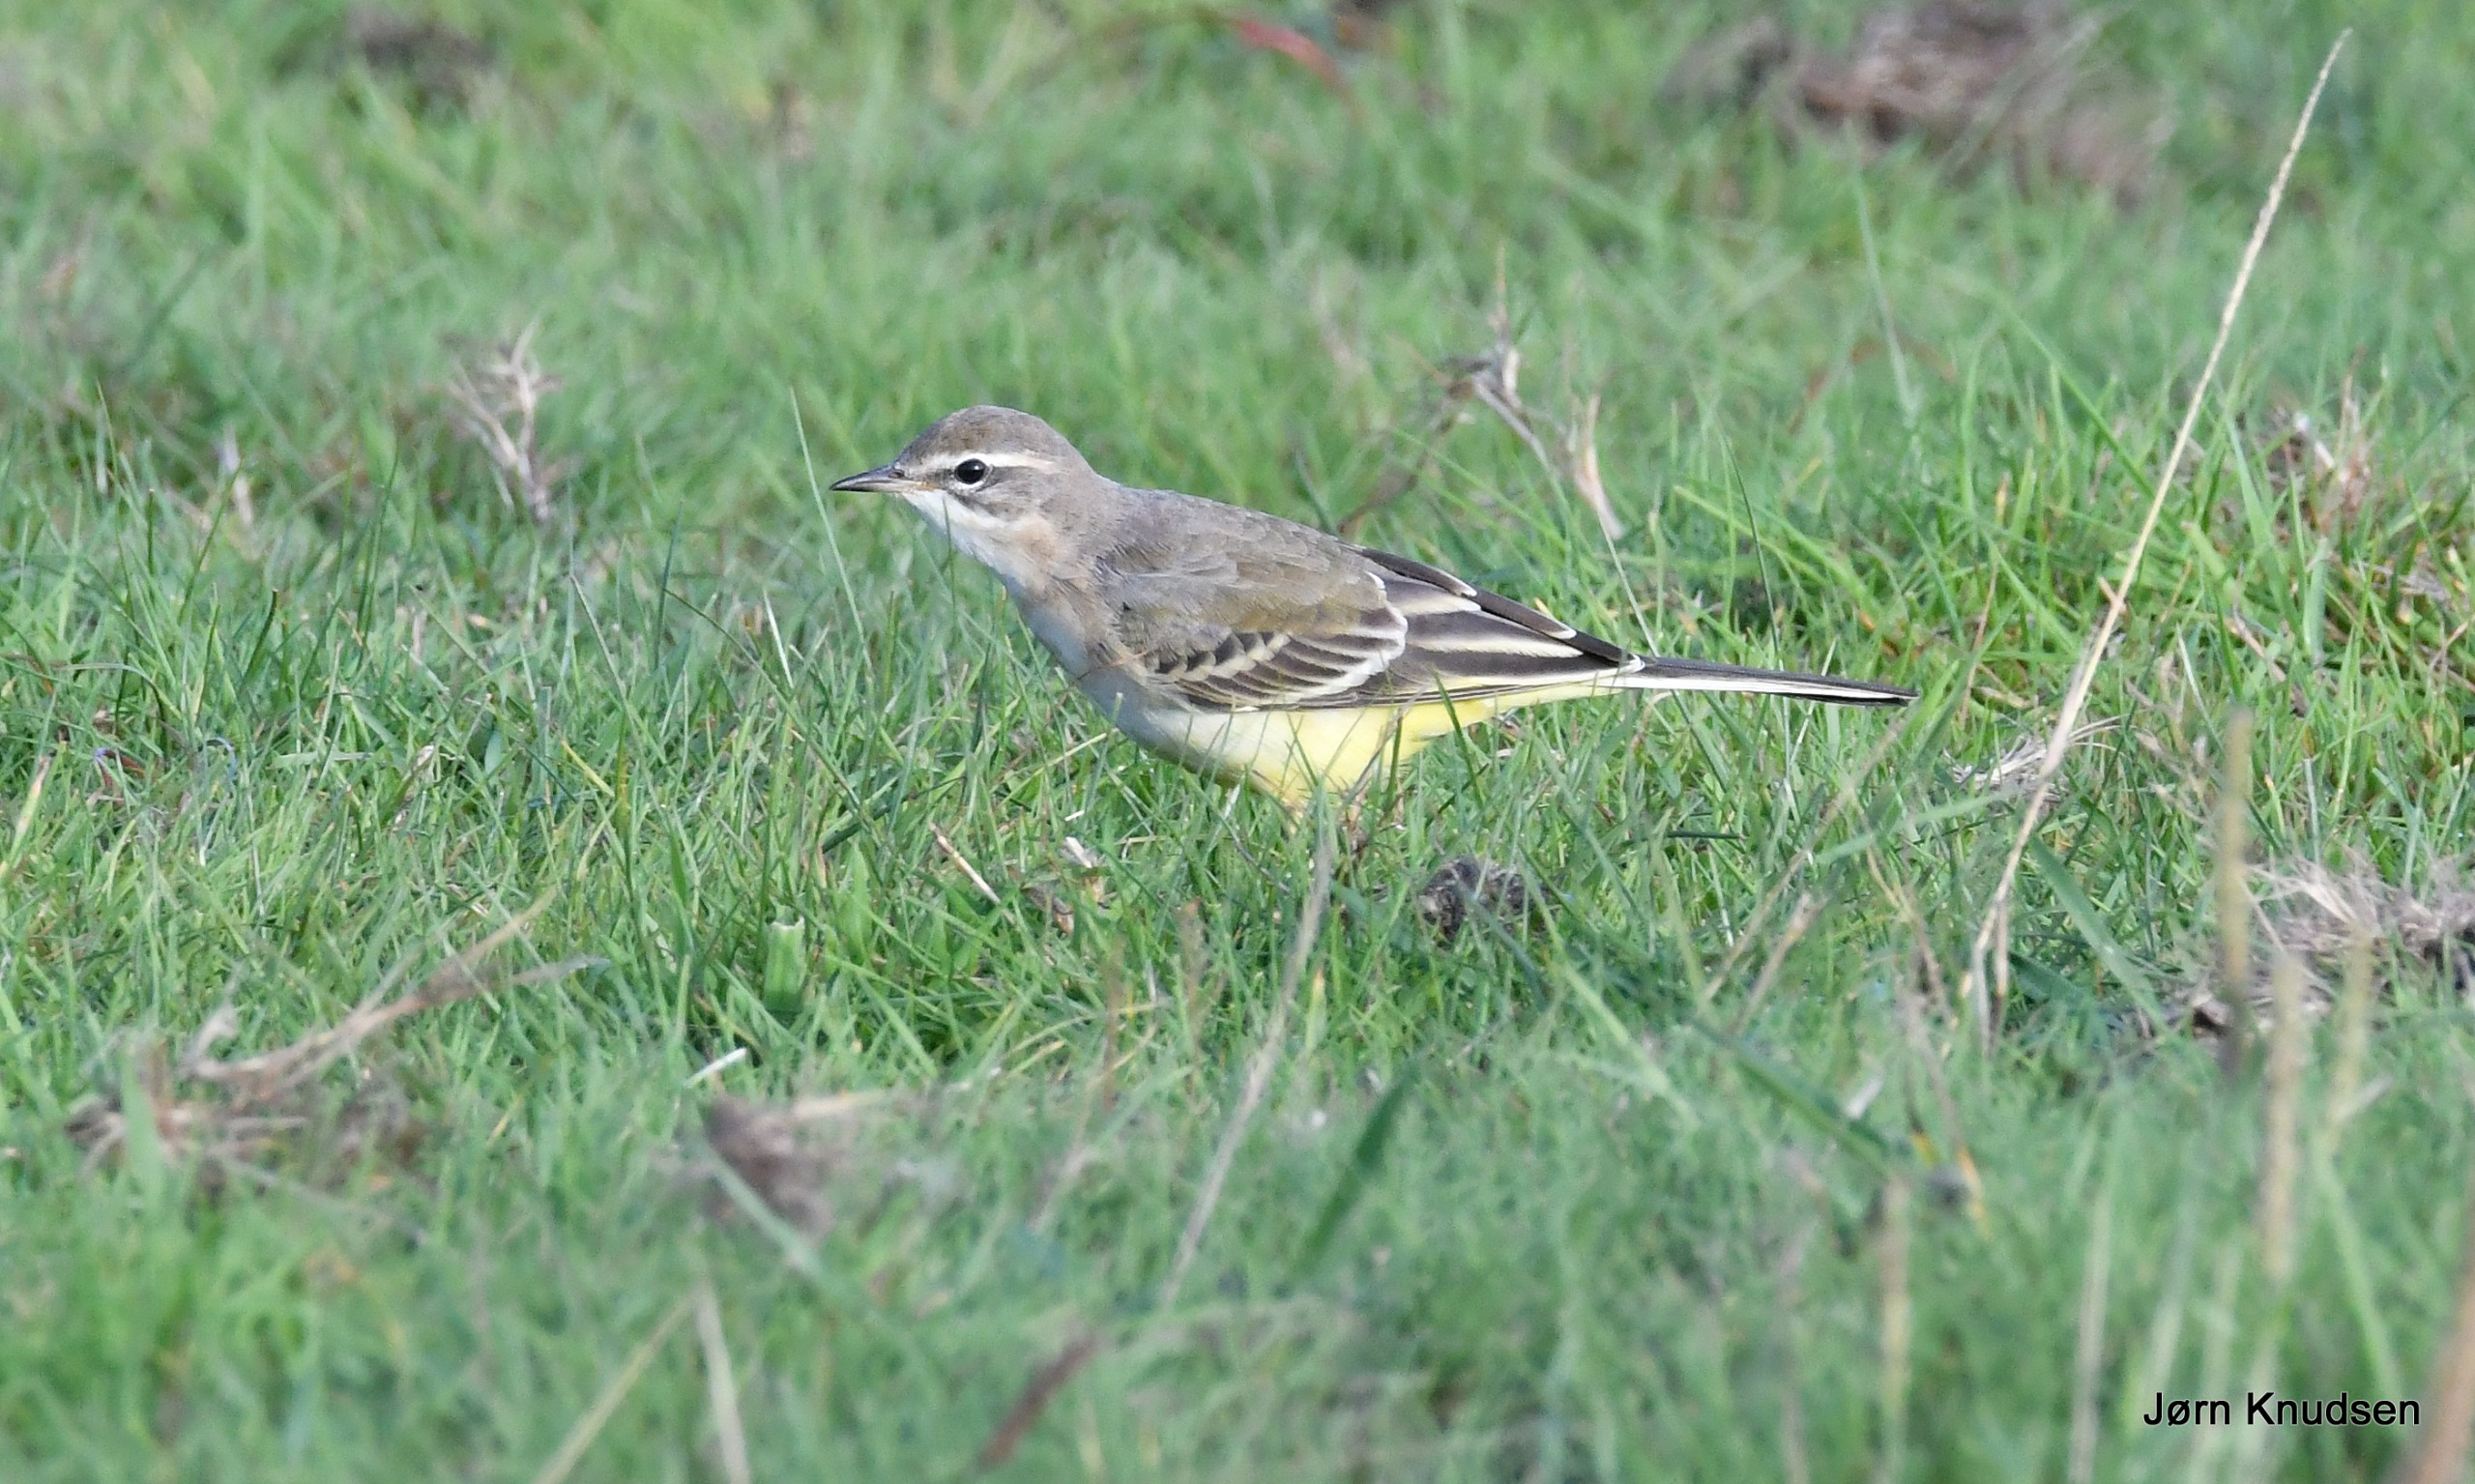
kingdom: Animalia
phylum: Chordata
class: Aves
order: Passeriformes
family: Motacillidae
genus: Motacilla
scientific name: Motacilla flava
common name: Gul vipstjert
